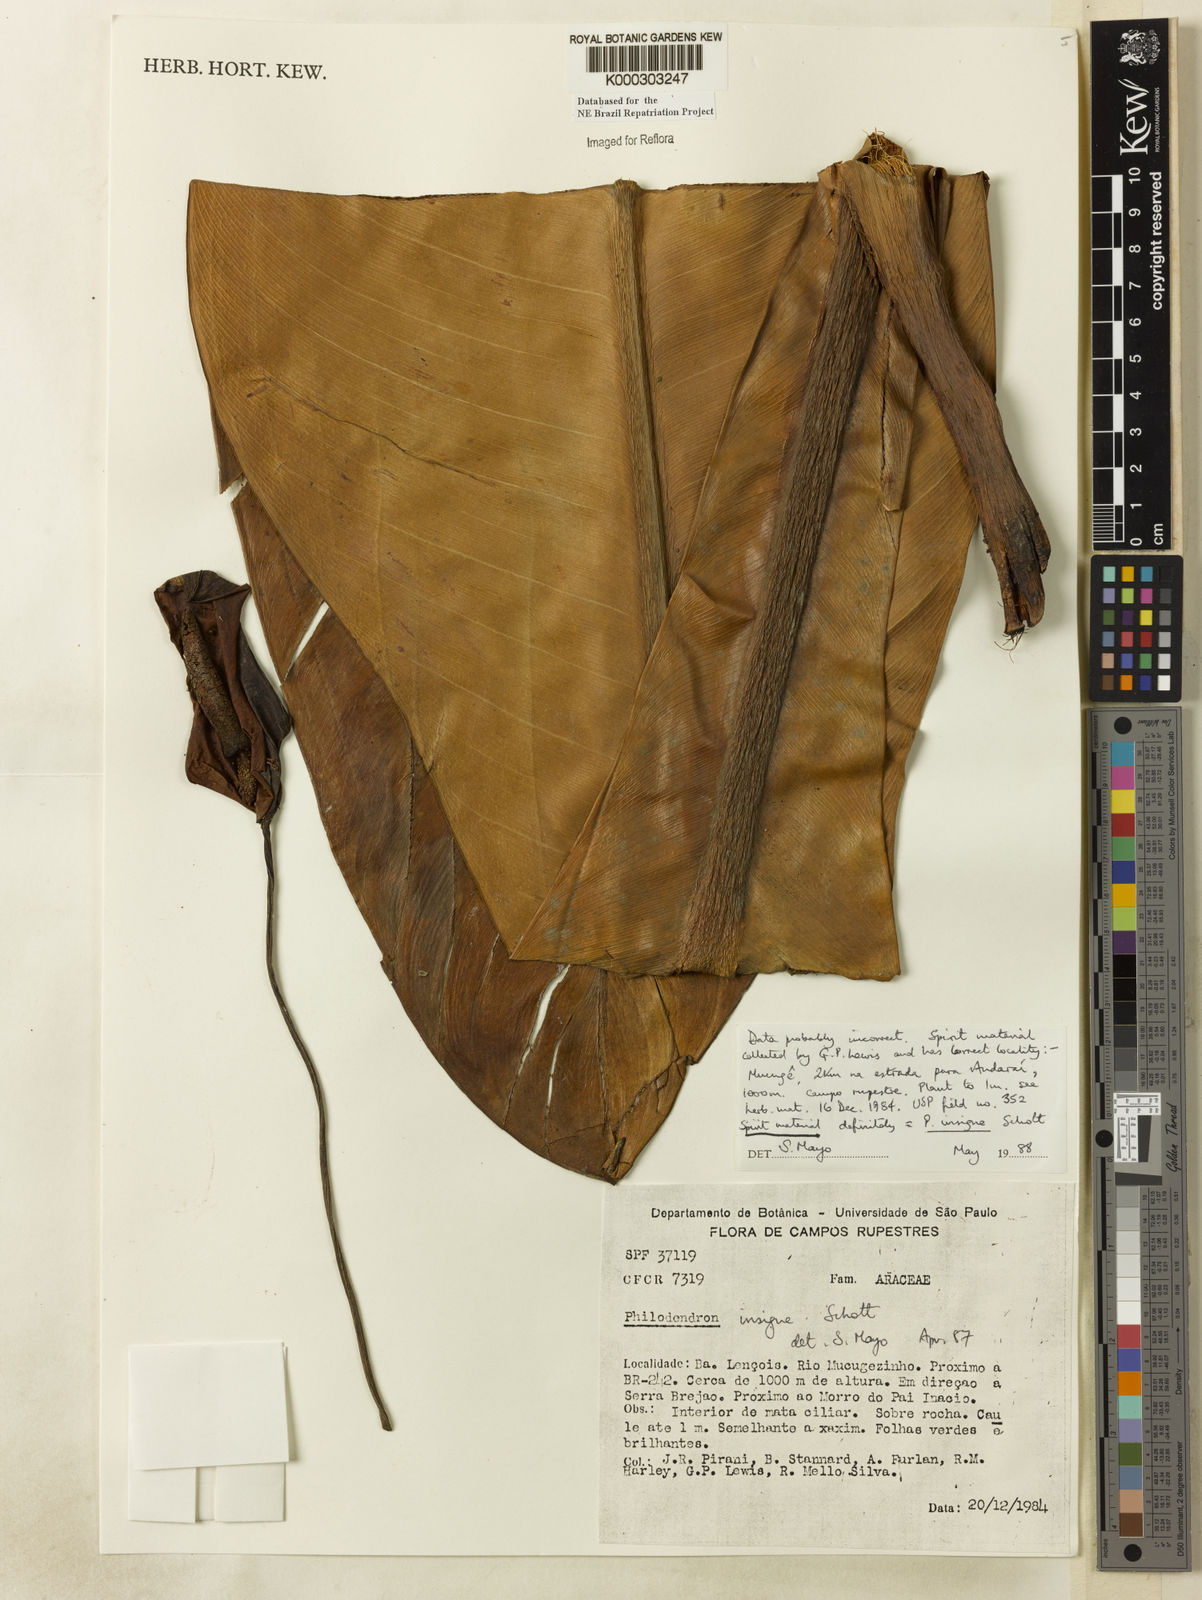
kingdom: Plantae
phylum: Tracheophyta
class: Liliopsida
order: Alismatales
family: Araceae
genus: Philodendron
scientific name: Philodendron insigne
